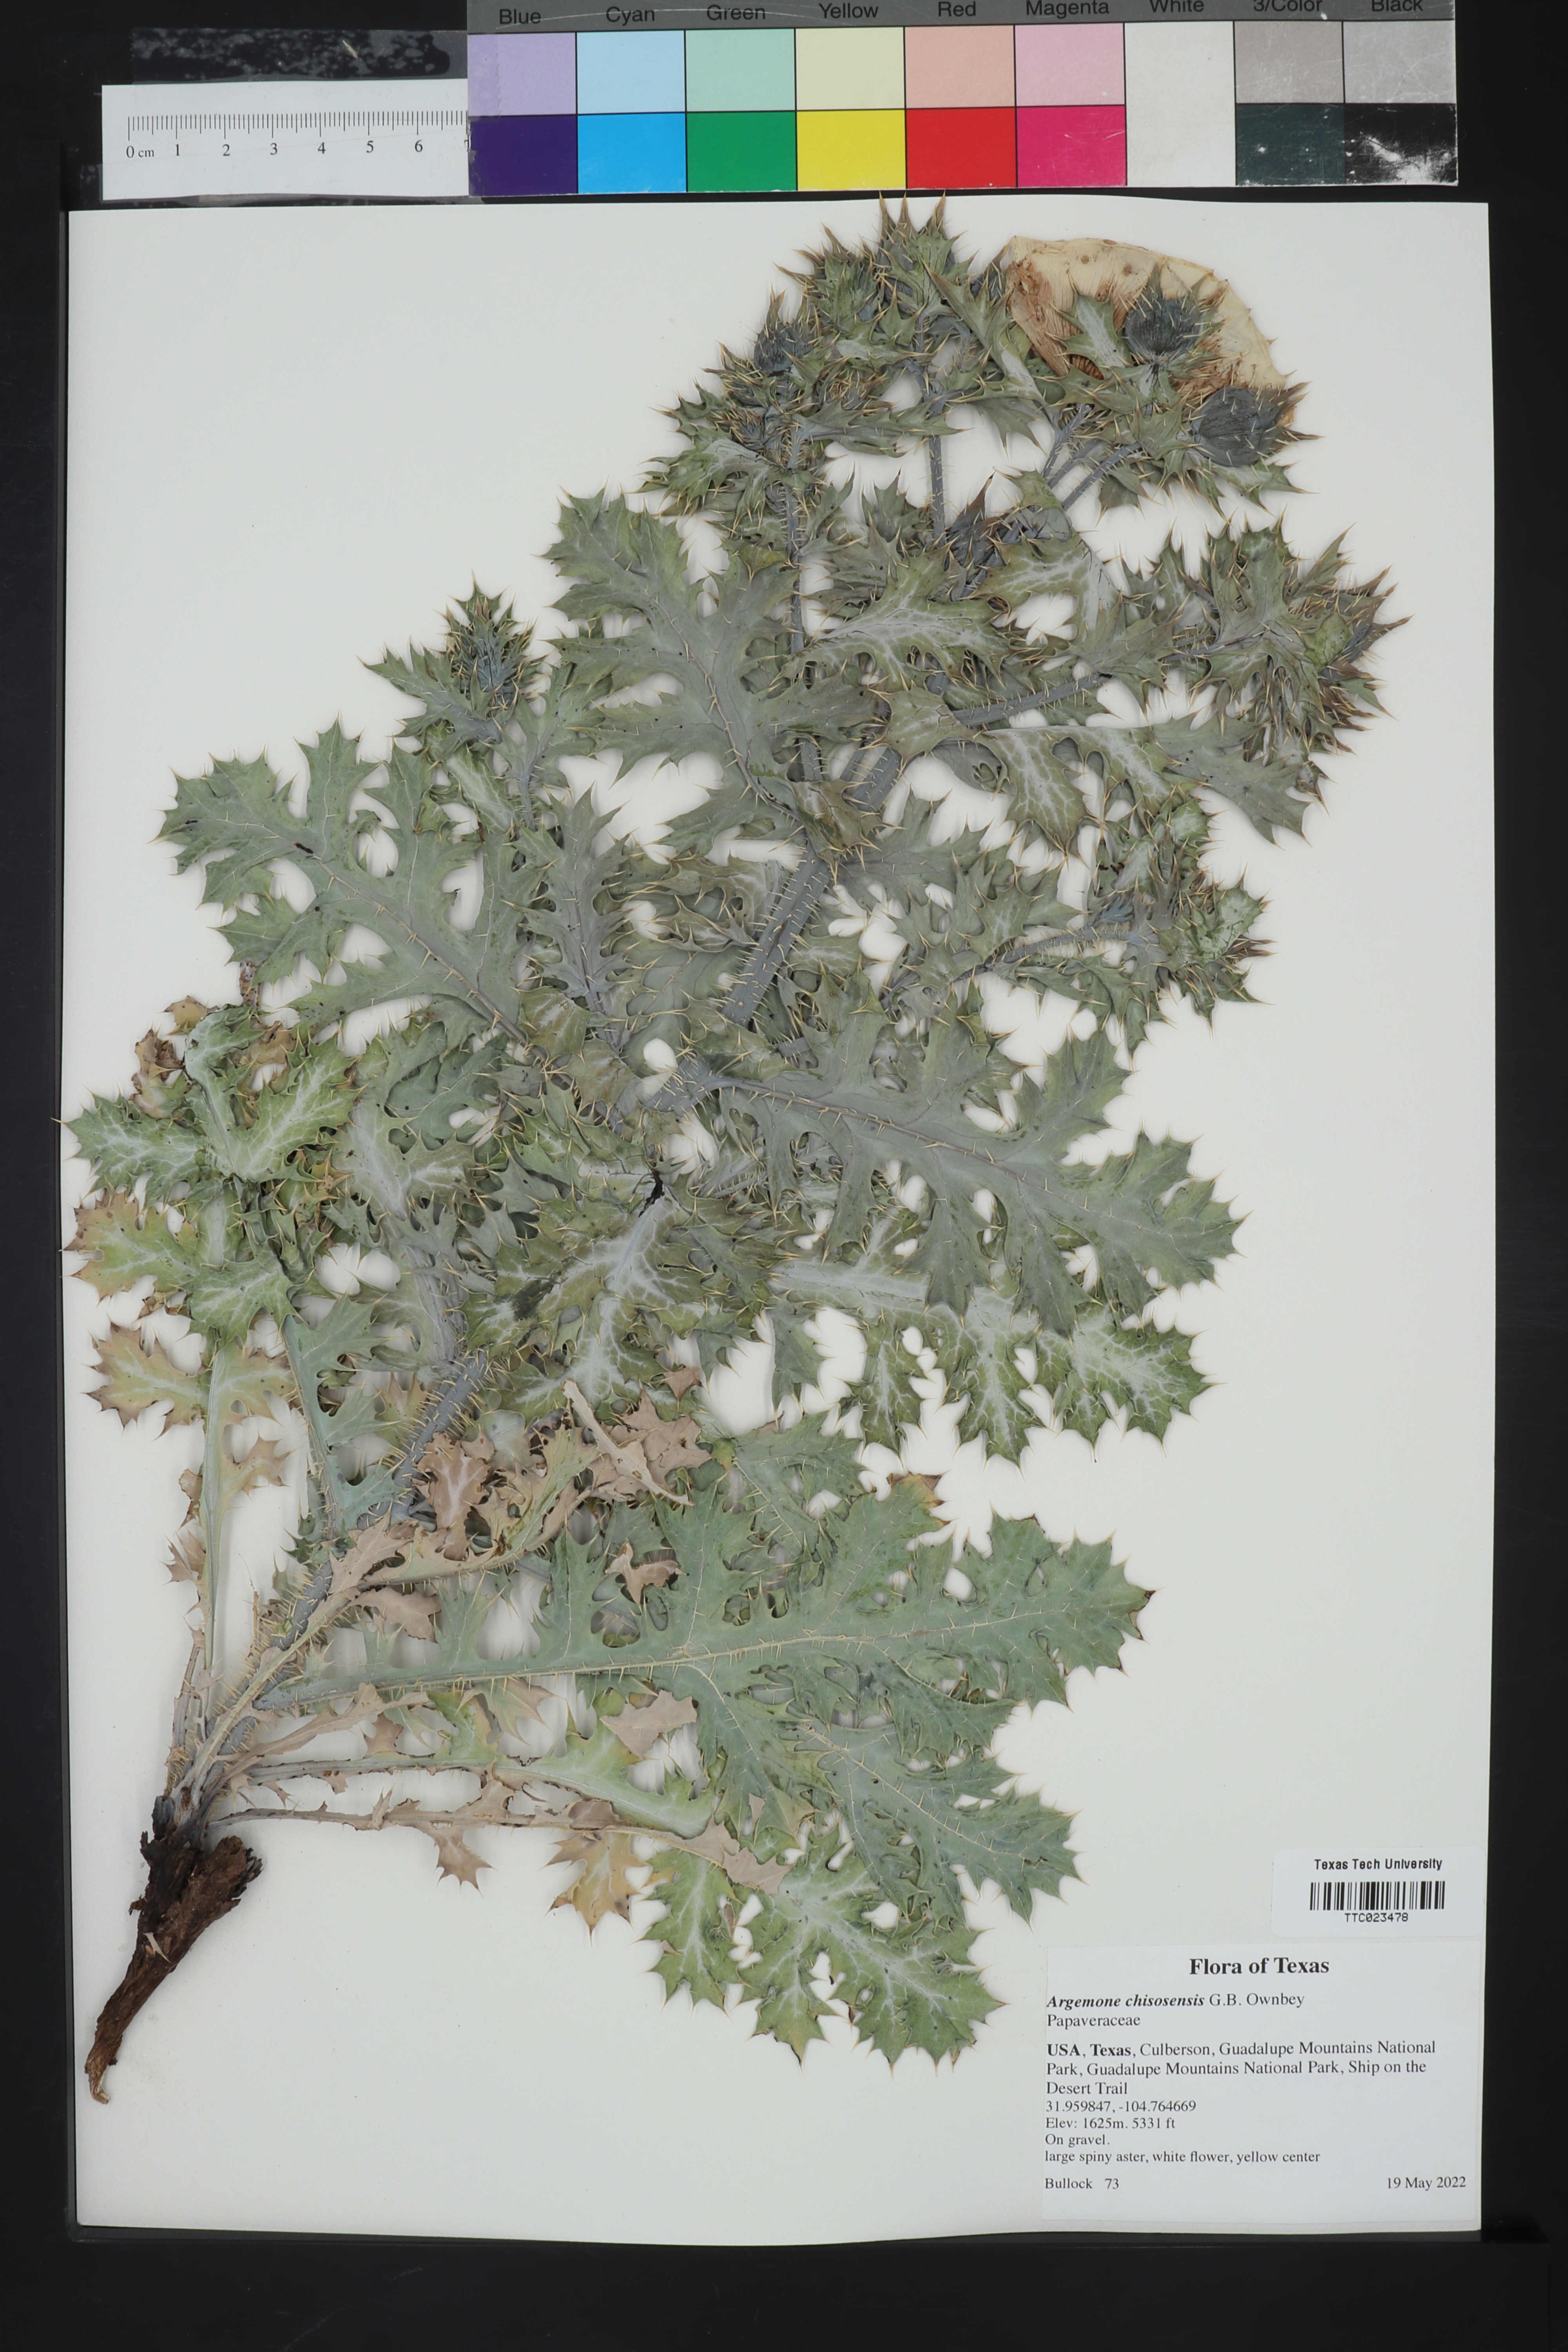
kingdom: Plantae
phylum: Tracheophyta
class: Magnoliopsida
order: Ranunculales
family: Papaveraceae
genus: Argemone
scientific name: Argemone chisosensis
